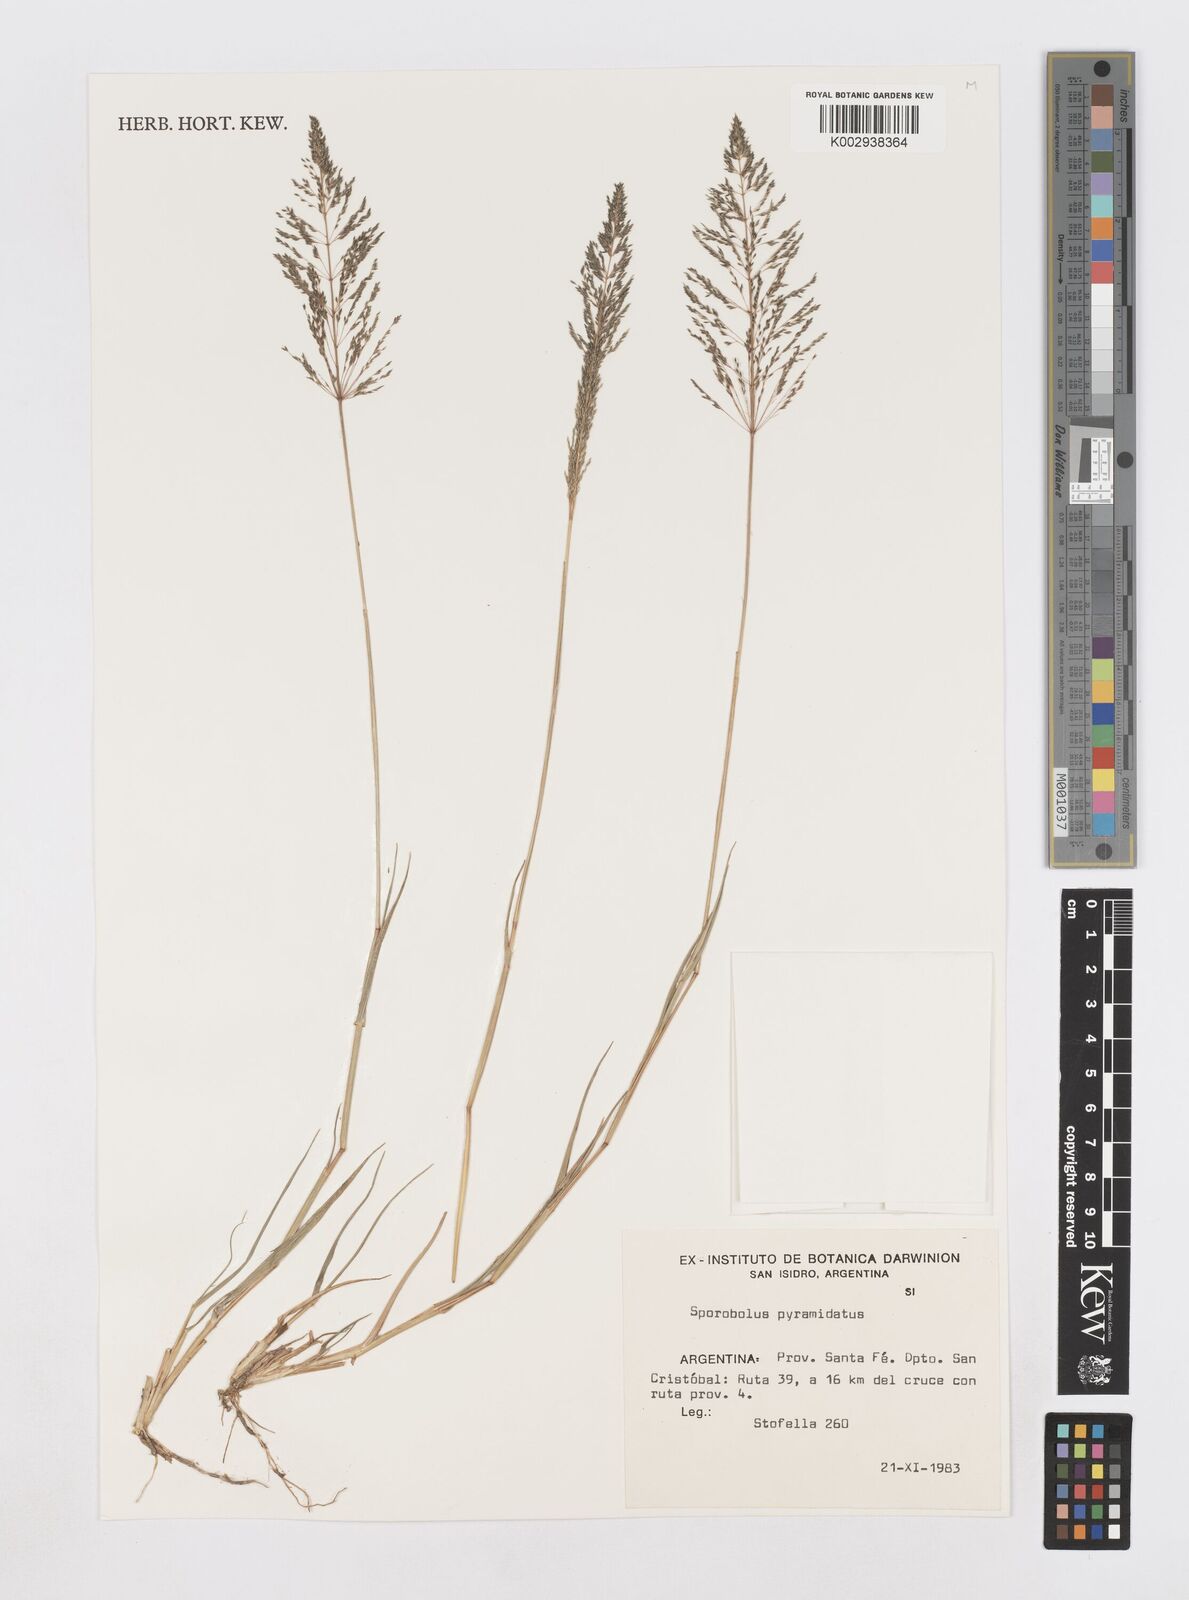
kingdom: Plantae
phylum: Tracheophyta
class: Liliopsida
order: Poales
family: Poaceae
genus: Sporobolus
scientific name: Sporobolus pyramidatus
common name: Whorled dropseed
